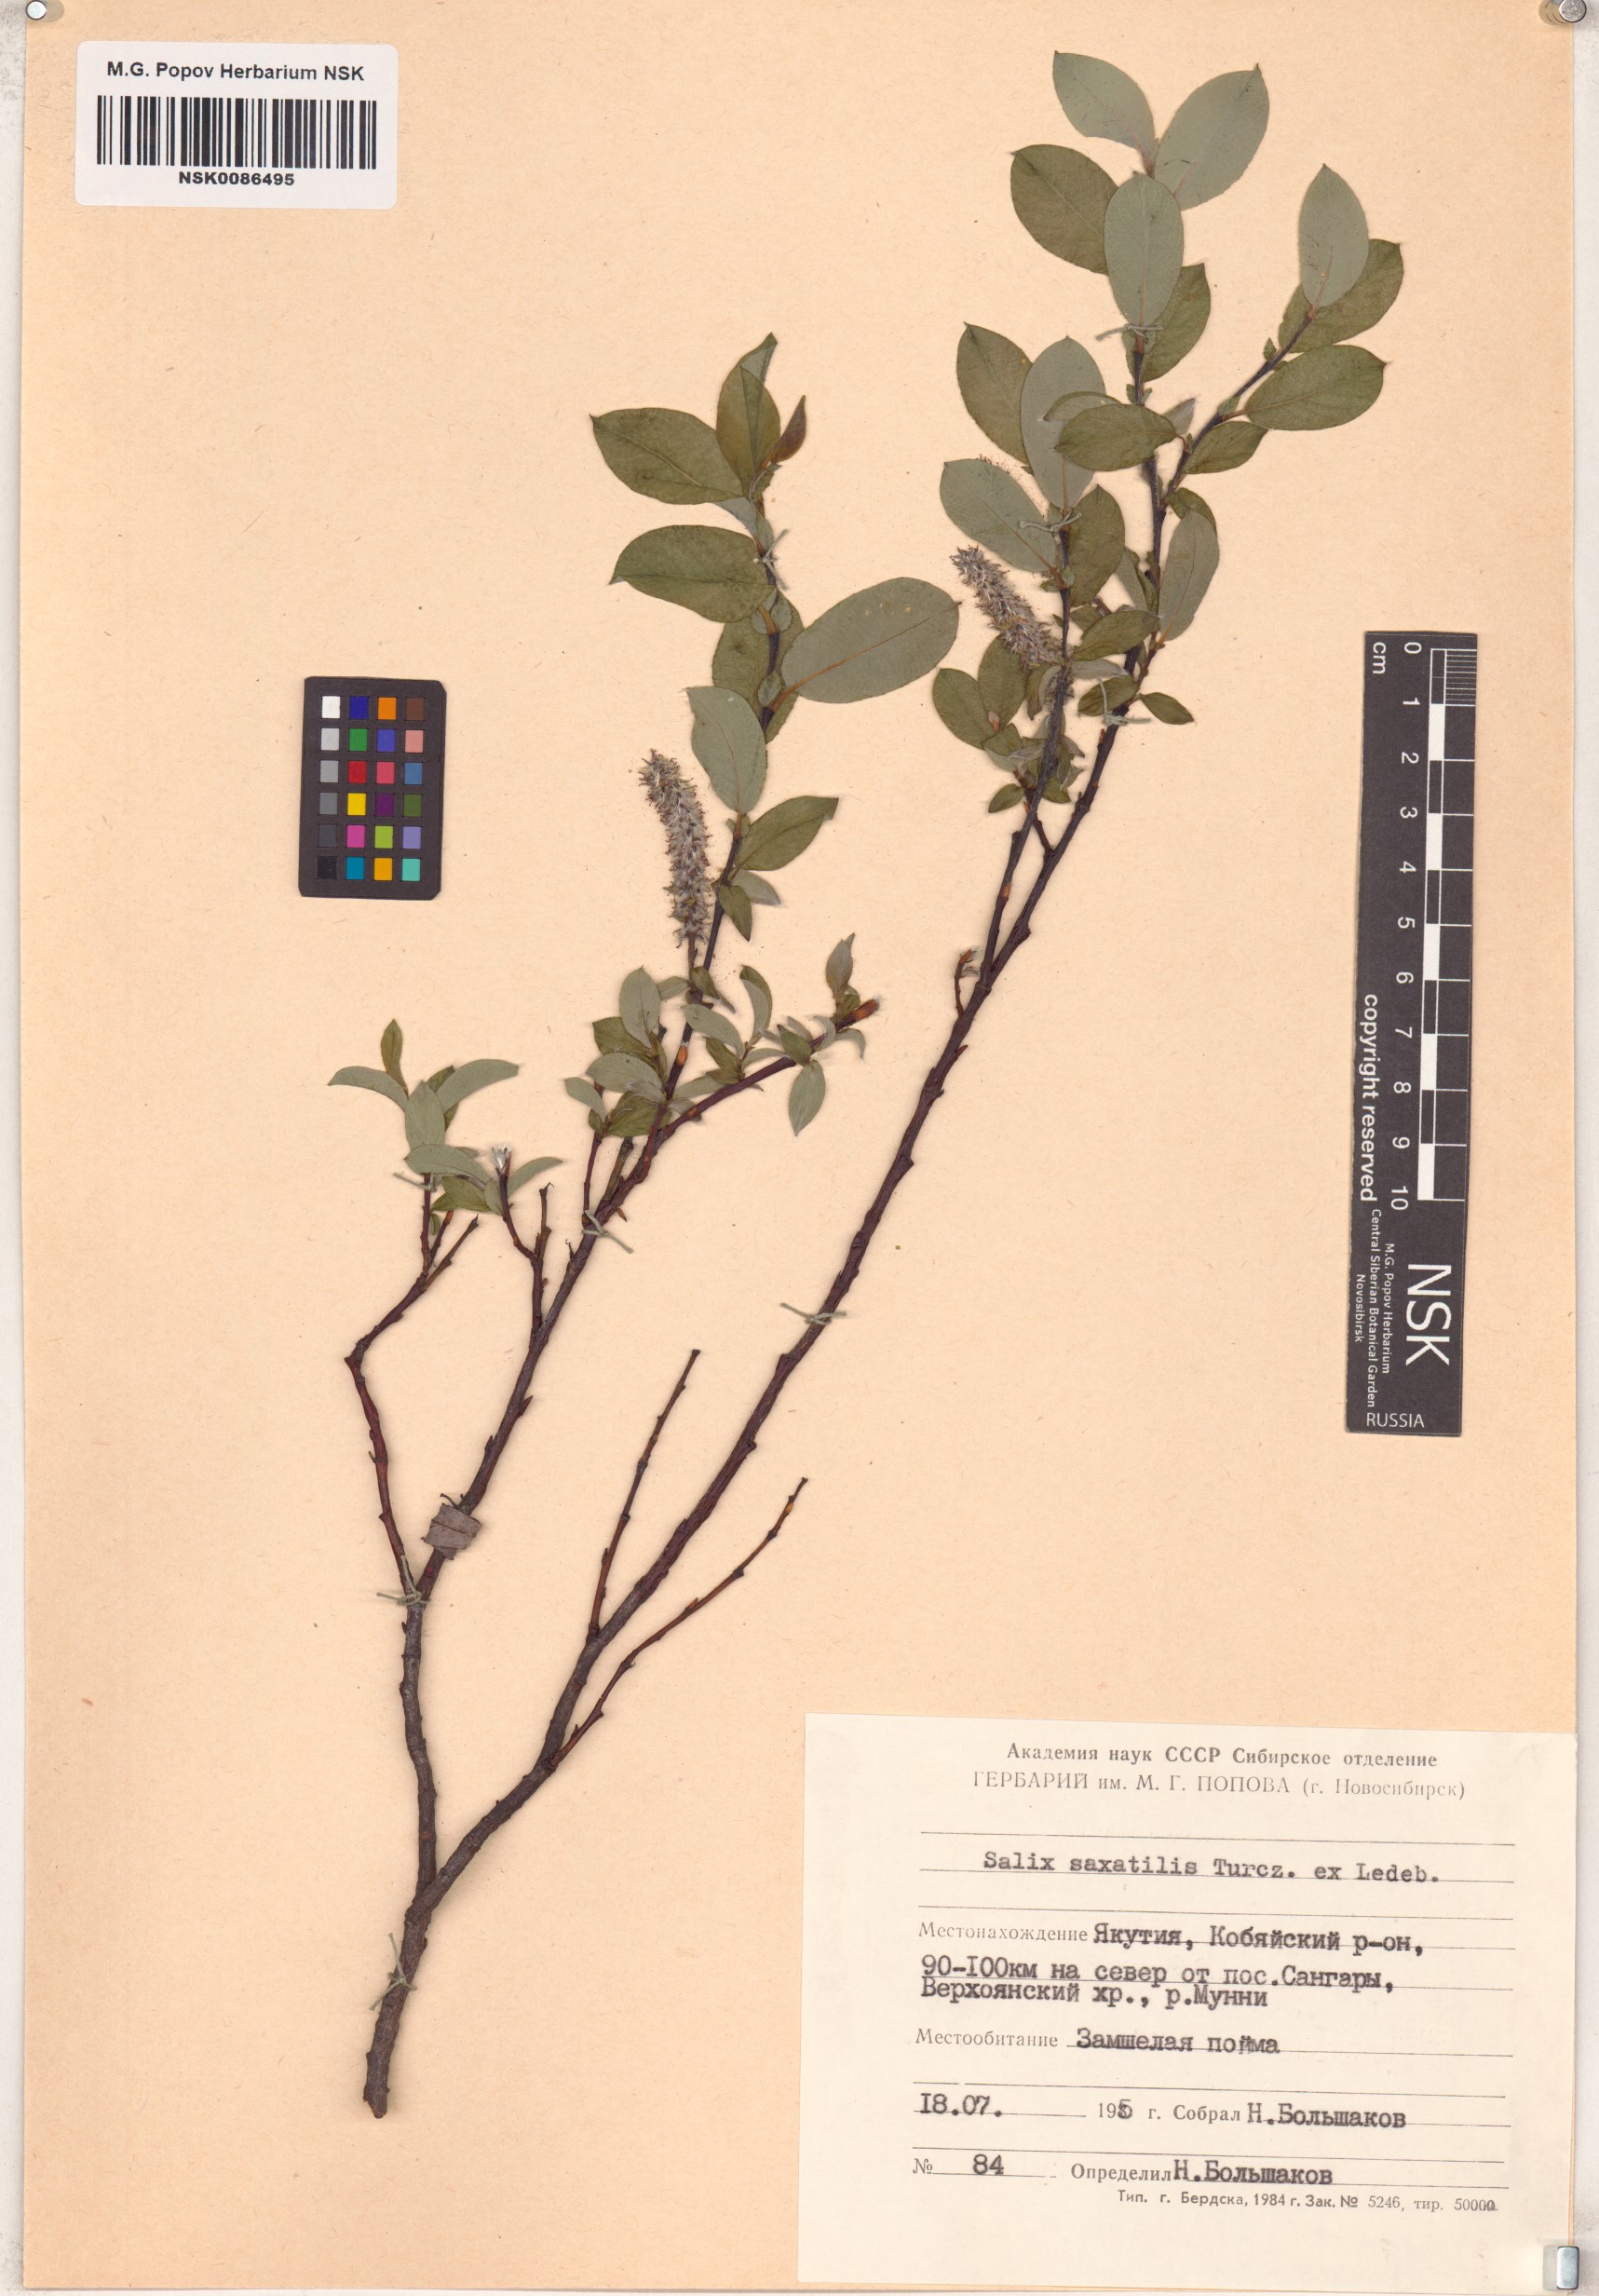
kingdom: Plantae
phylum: Tracheophyta
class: Magnoliopsida
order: Malpighiales
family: Salicaceae
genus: Salix
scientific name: Salix saxatilis
